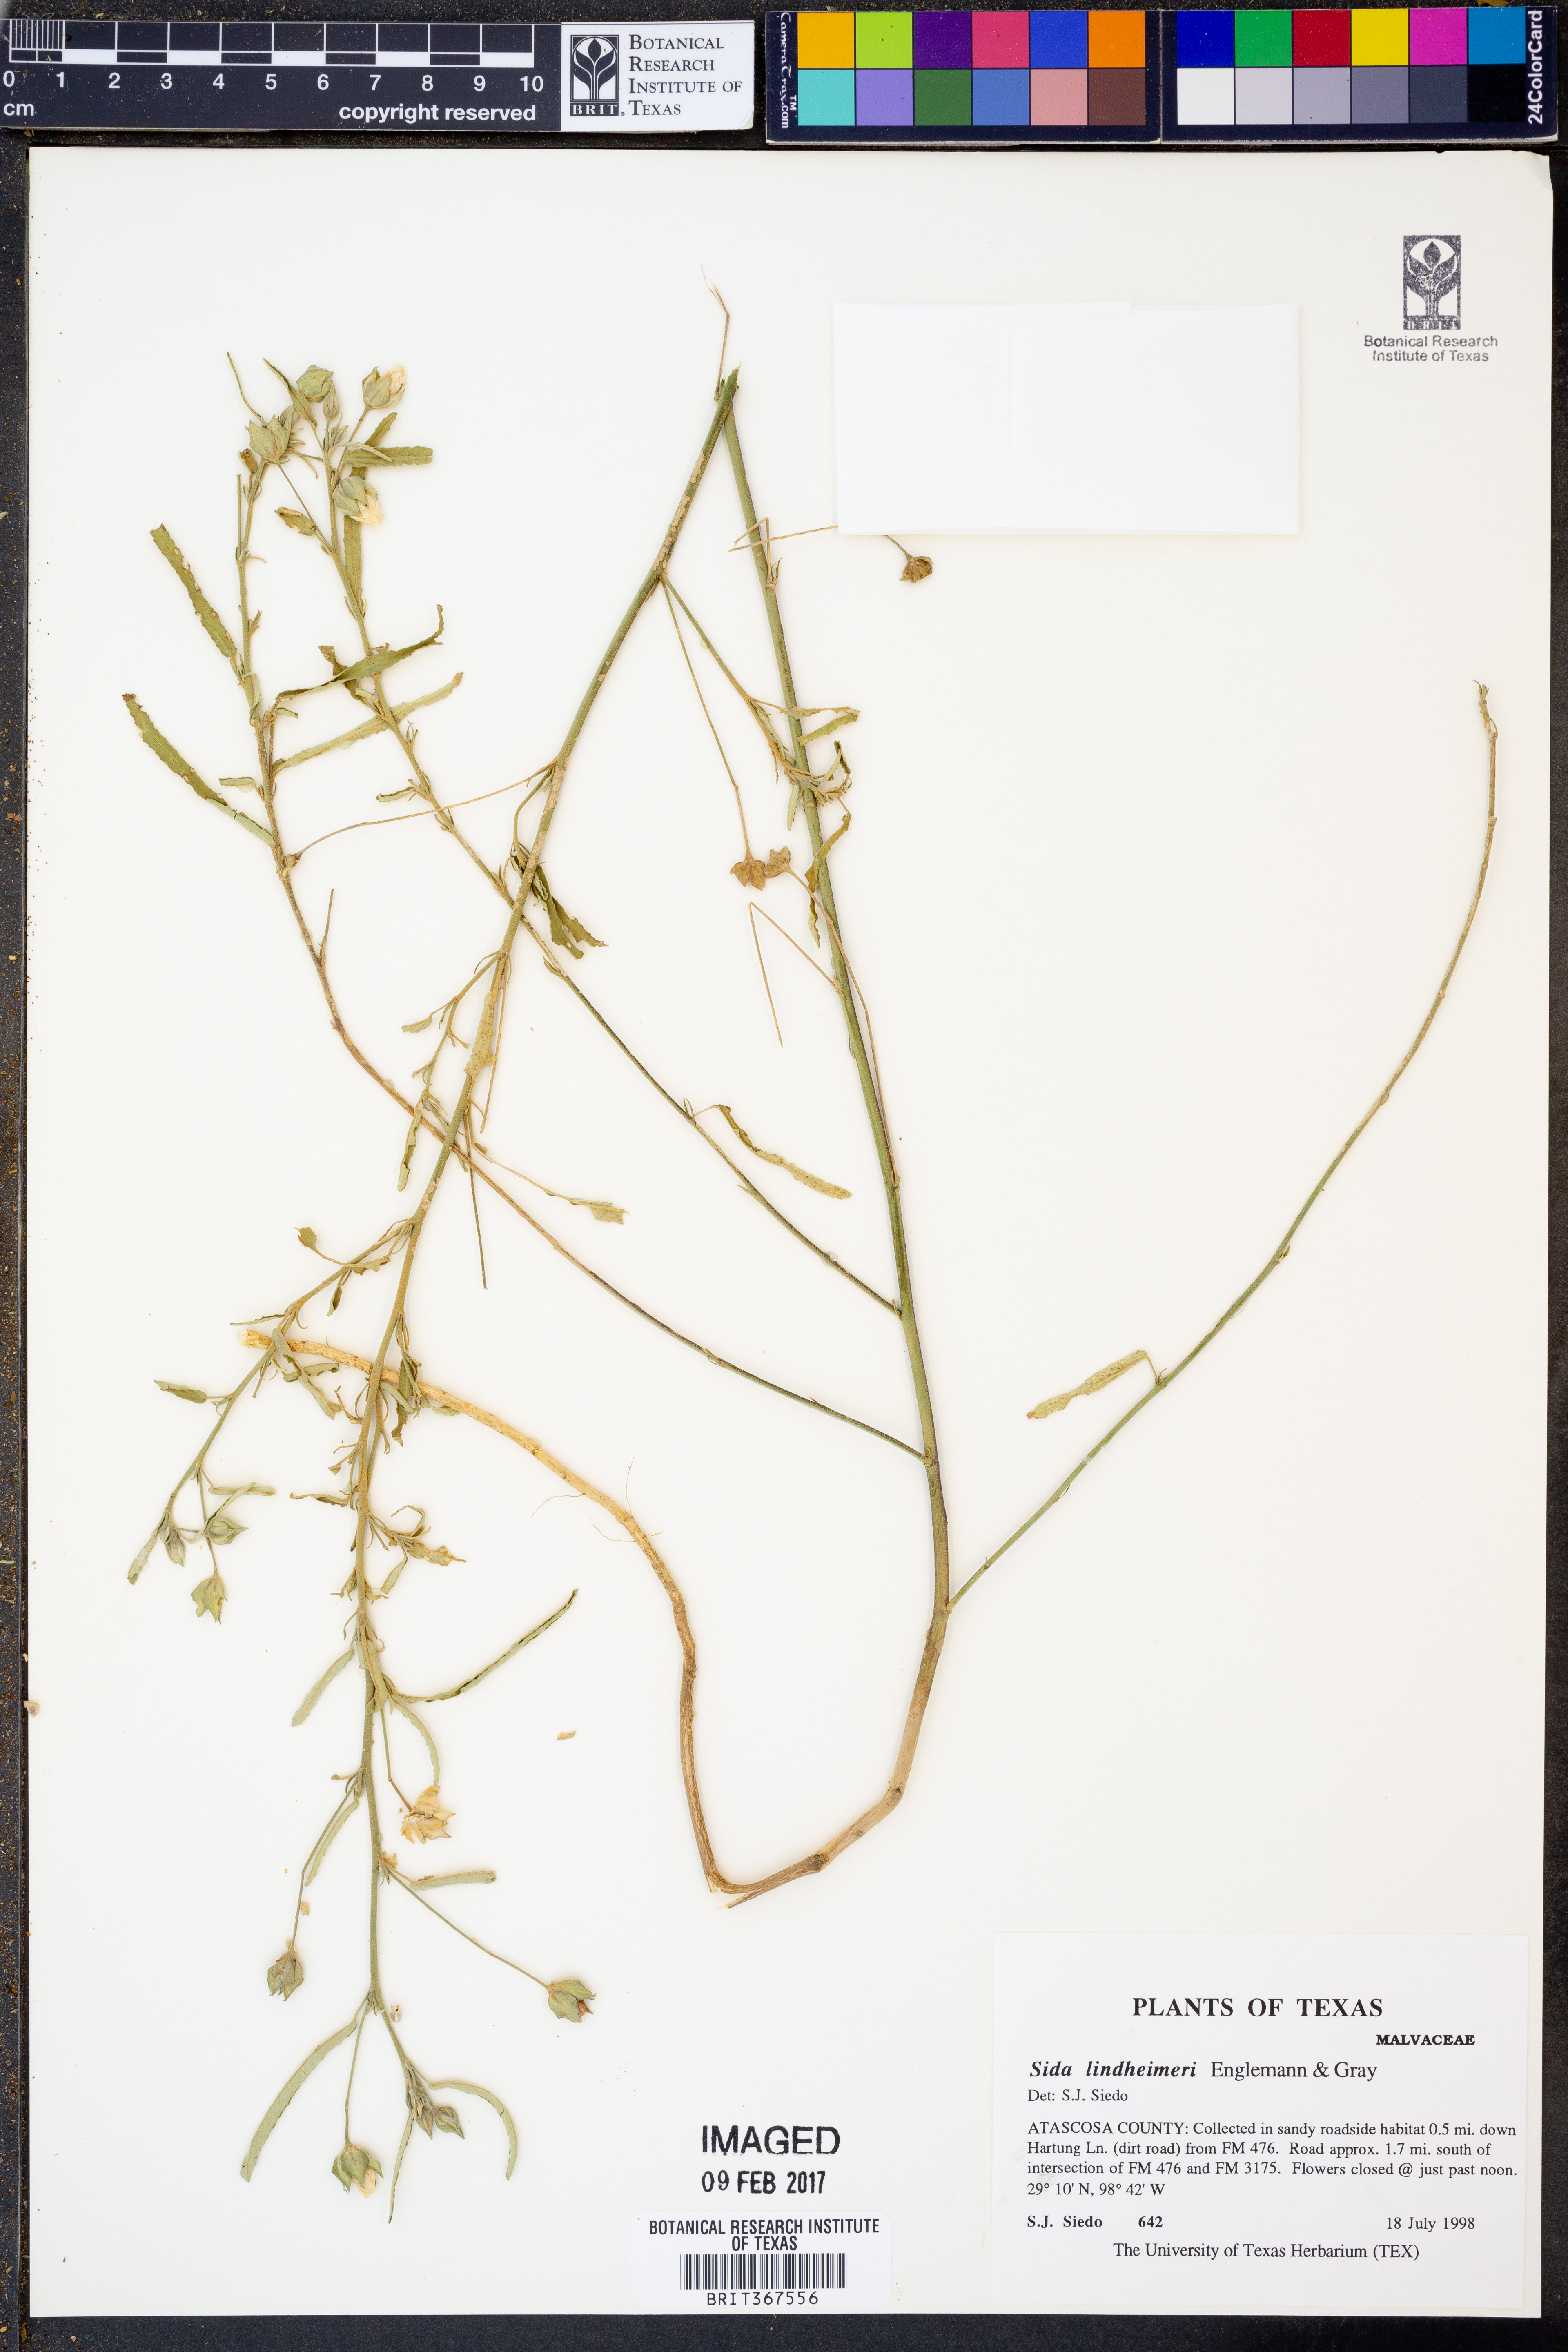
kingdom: Plantae
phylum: Tracheophyta
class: Magnoliopsida
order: Malvales
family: Malvaceae
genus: Sida
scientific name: Sida lindheimeri
